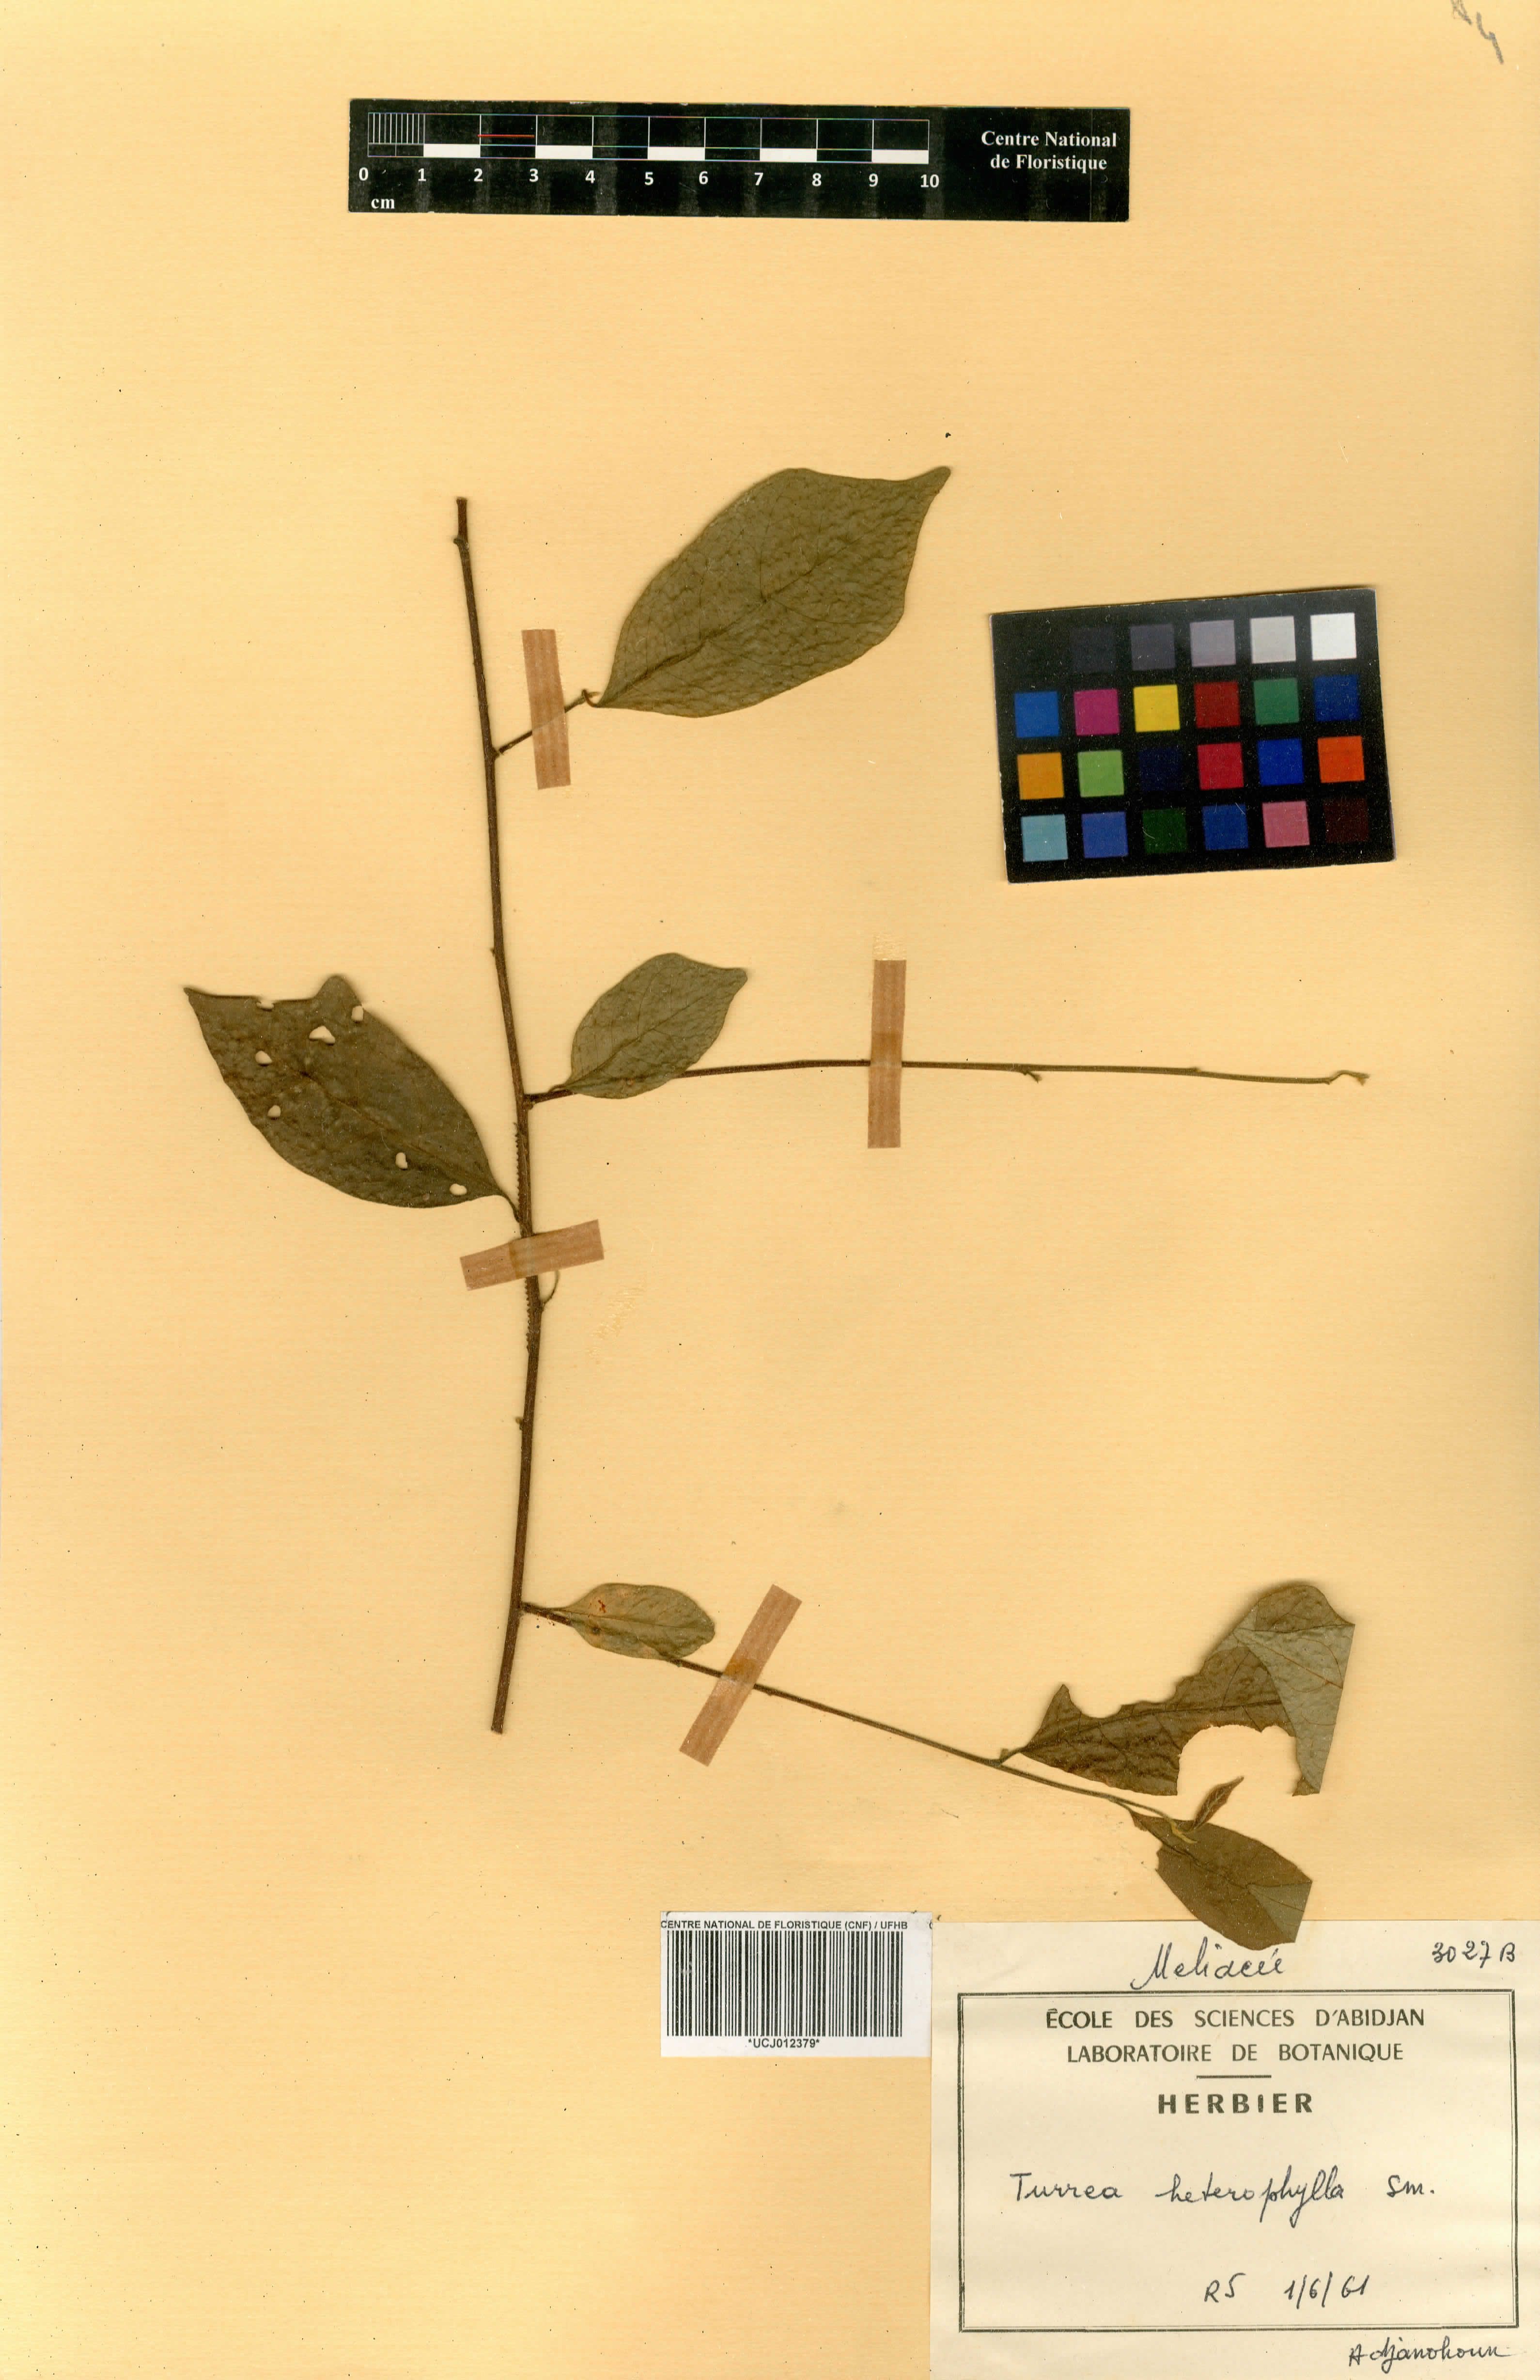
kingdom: Plantae
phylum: Tracheophyta
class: Magnoliopsida
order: Sapindales
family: Meliaceae
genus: Turraea
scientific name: Turraea heterophylla
